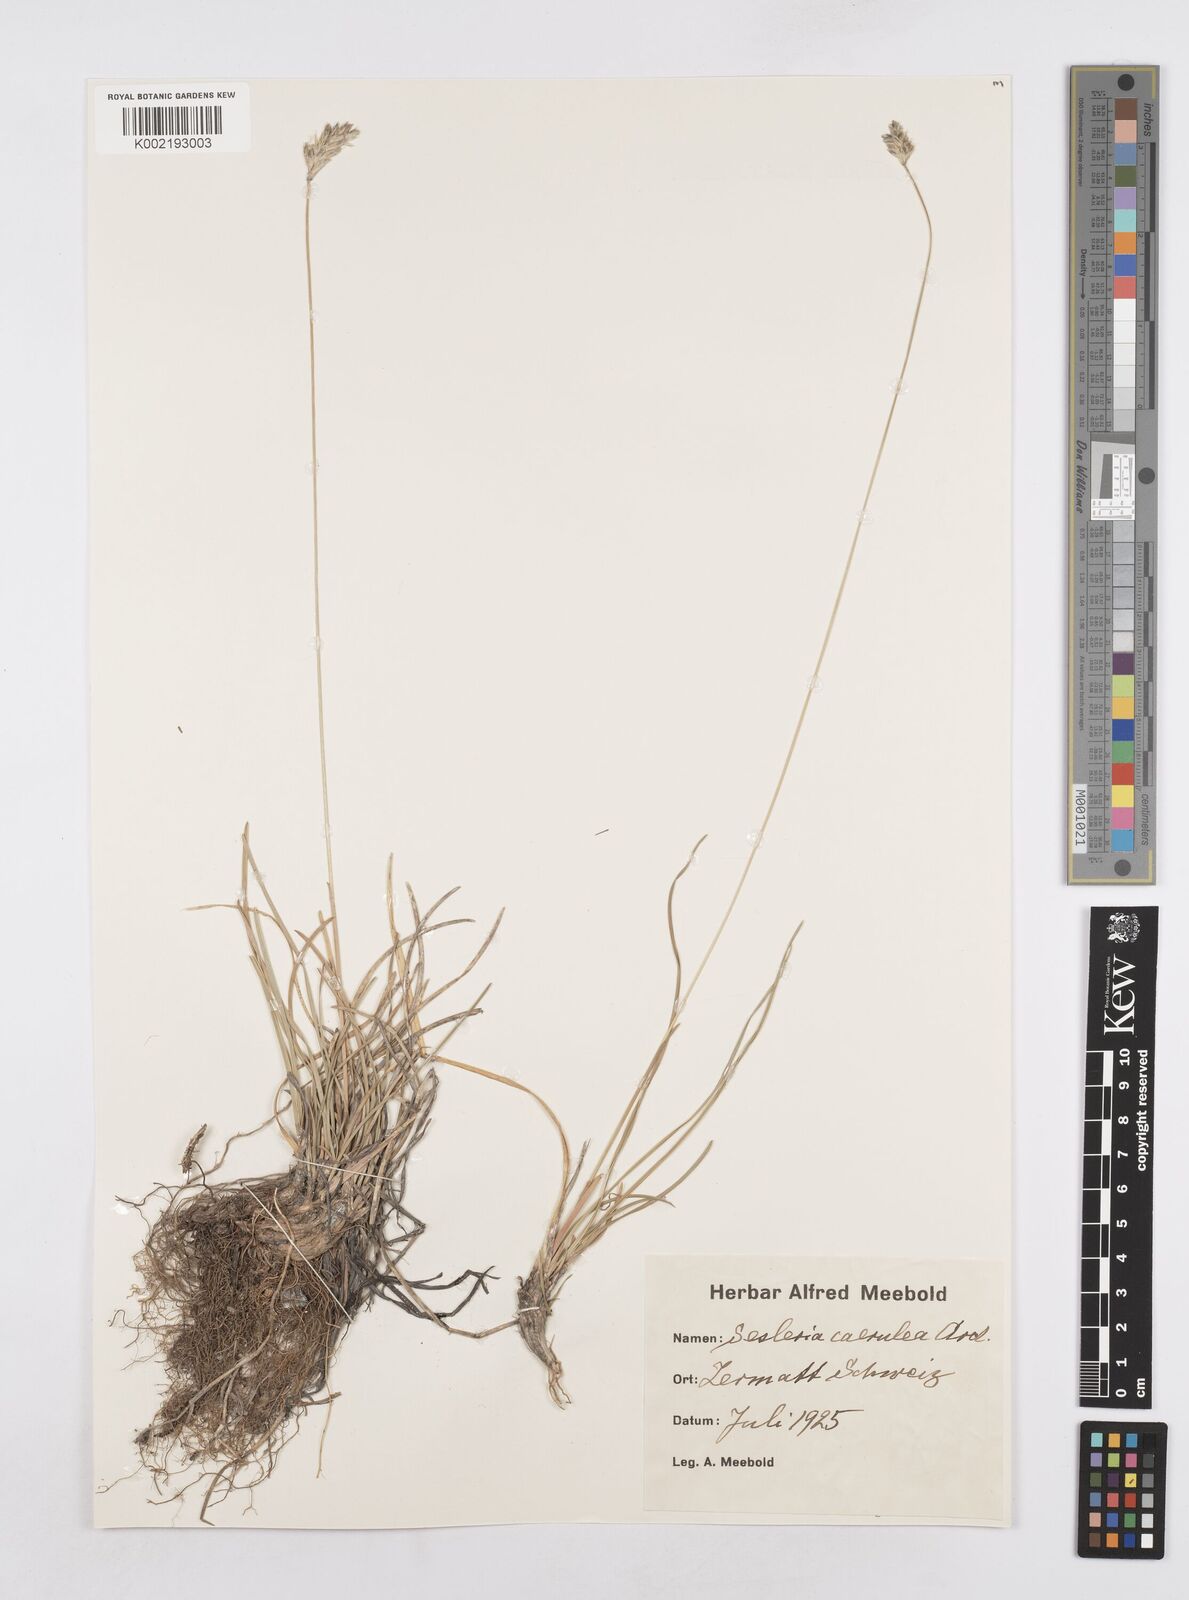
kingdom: Plantae
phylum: Tracheophyta
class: Liliopsida
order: Poales
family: Poaceae
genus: Sesleria
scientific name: Sesleria caerulea
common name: Blue moor-grass
